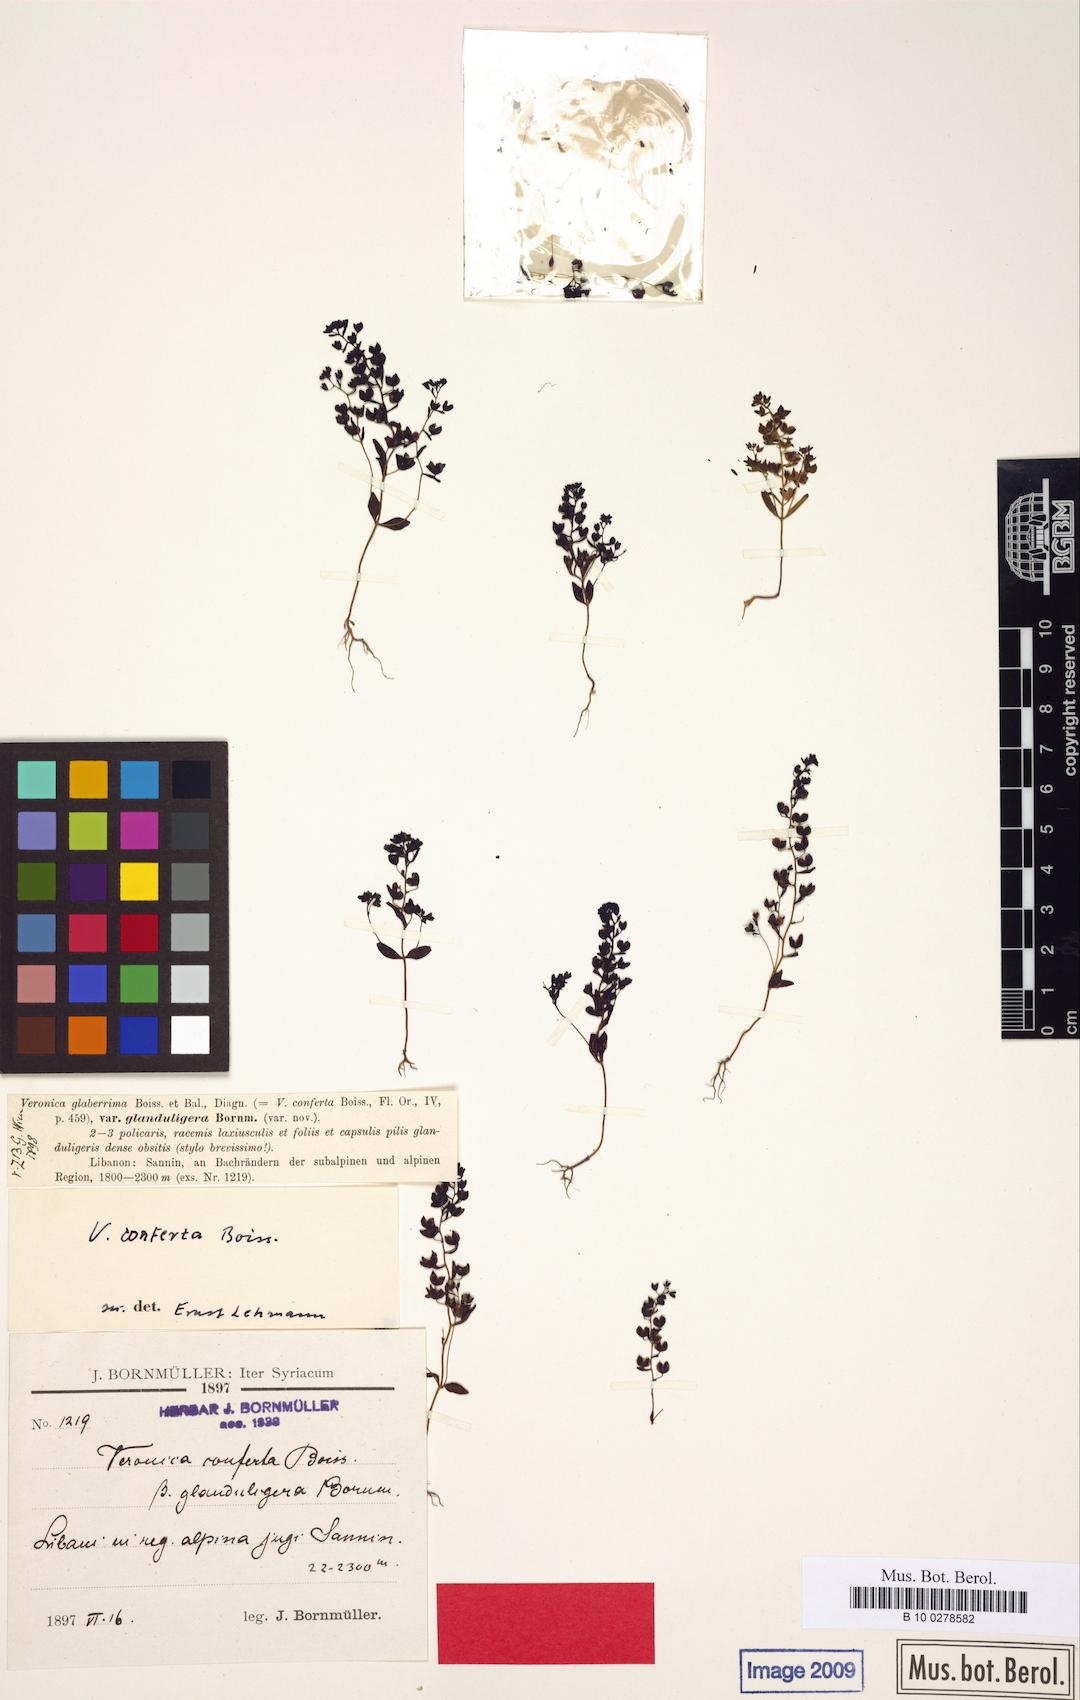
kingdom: Plantae
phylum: Tracheophyta
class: Magnoliopsida
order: Lamiales
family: Plantaginaceae
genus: Veronica
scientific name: Veronica pusilla
